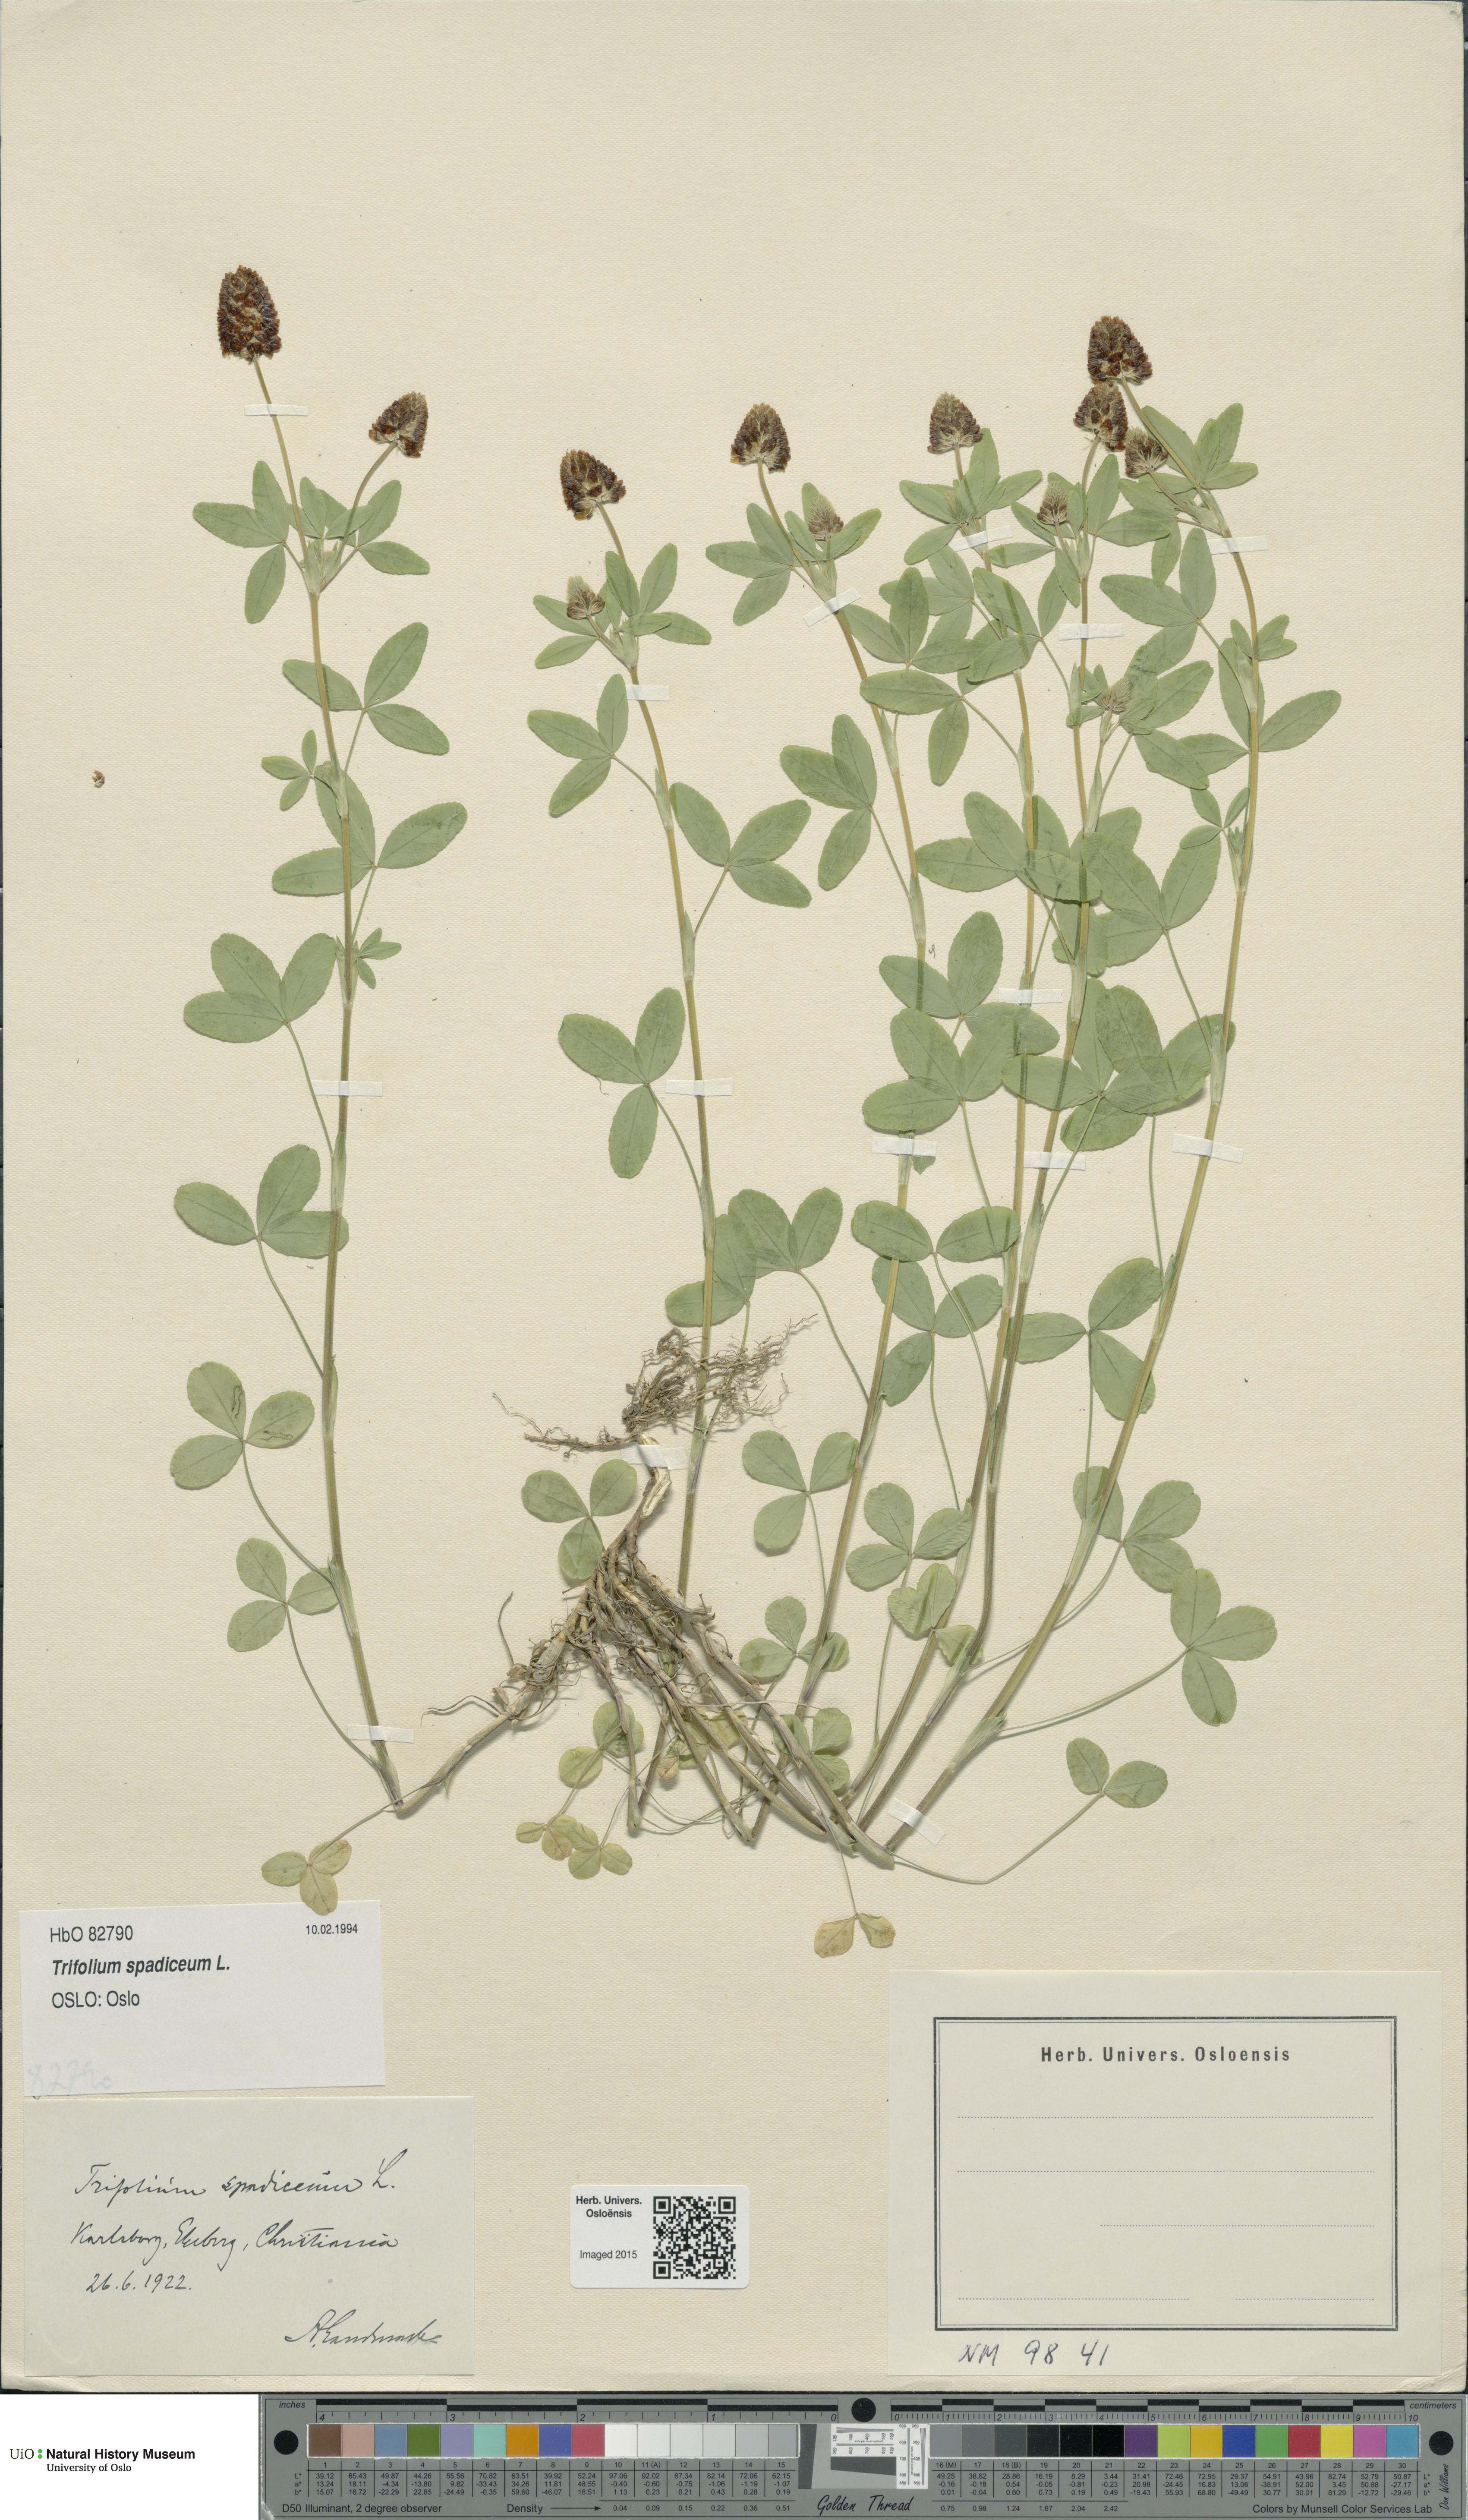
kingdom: Plantae
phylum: Tracheophyta
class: Magnoliopsida
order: Fabales
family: Fabaceae
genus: Trifolium
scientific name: Trifolium spadiceum
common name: Brown moor clover
